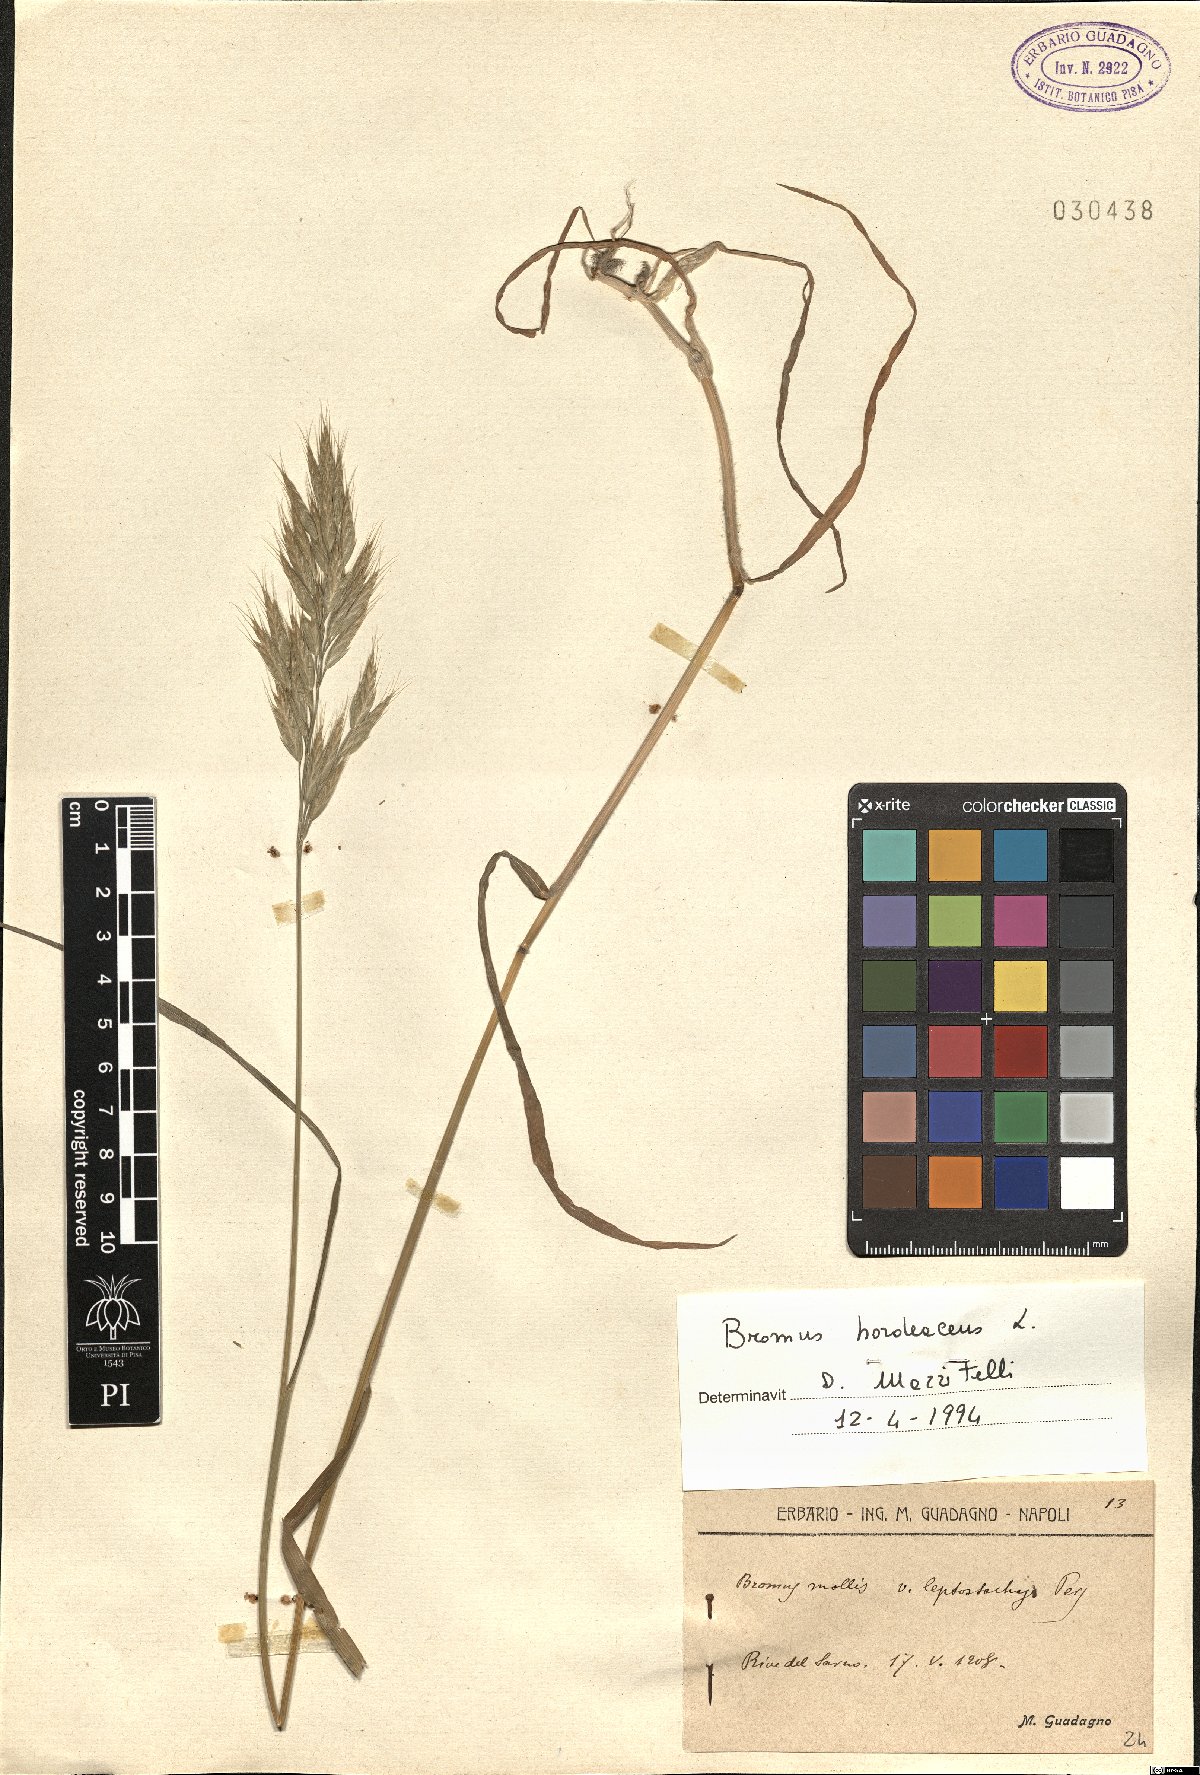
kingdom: Plantae
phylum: Tracheophyta
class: Liliopsida
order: Poales
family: Poaceae
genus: Bromus
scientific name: Bromus hordeaceus
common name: Soft brome
